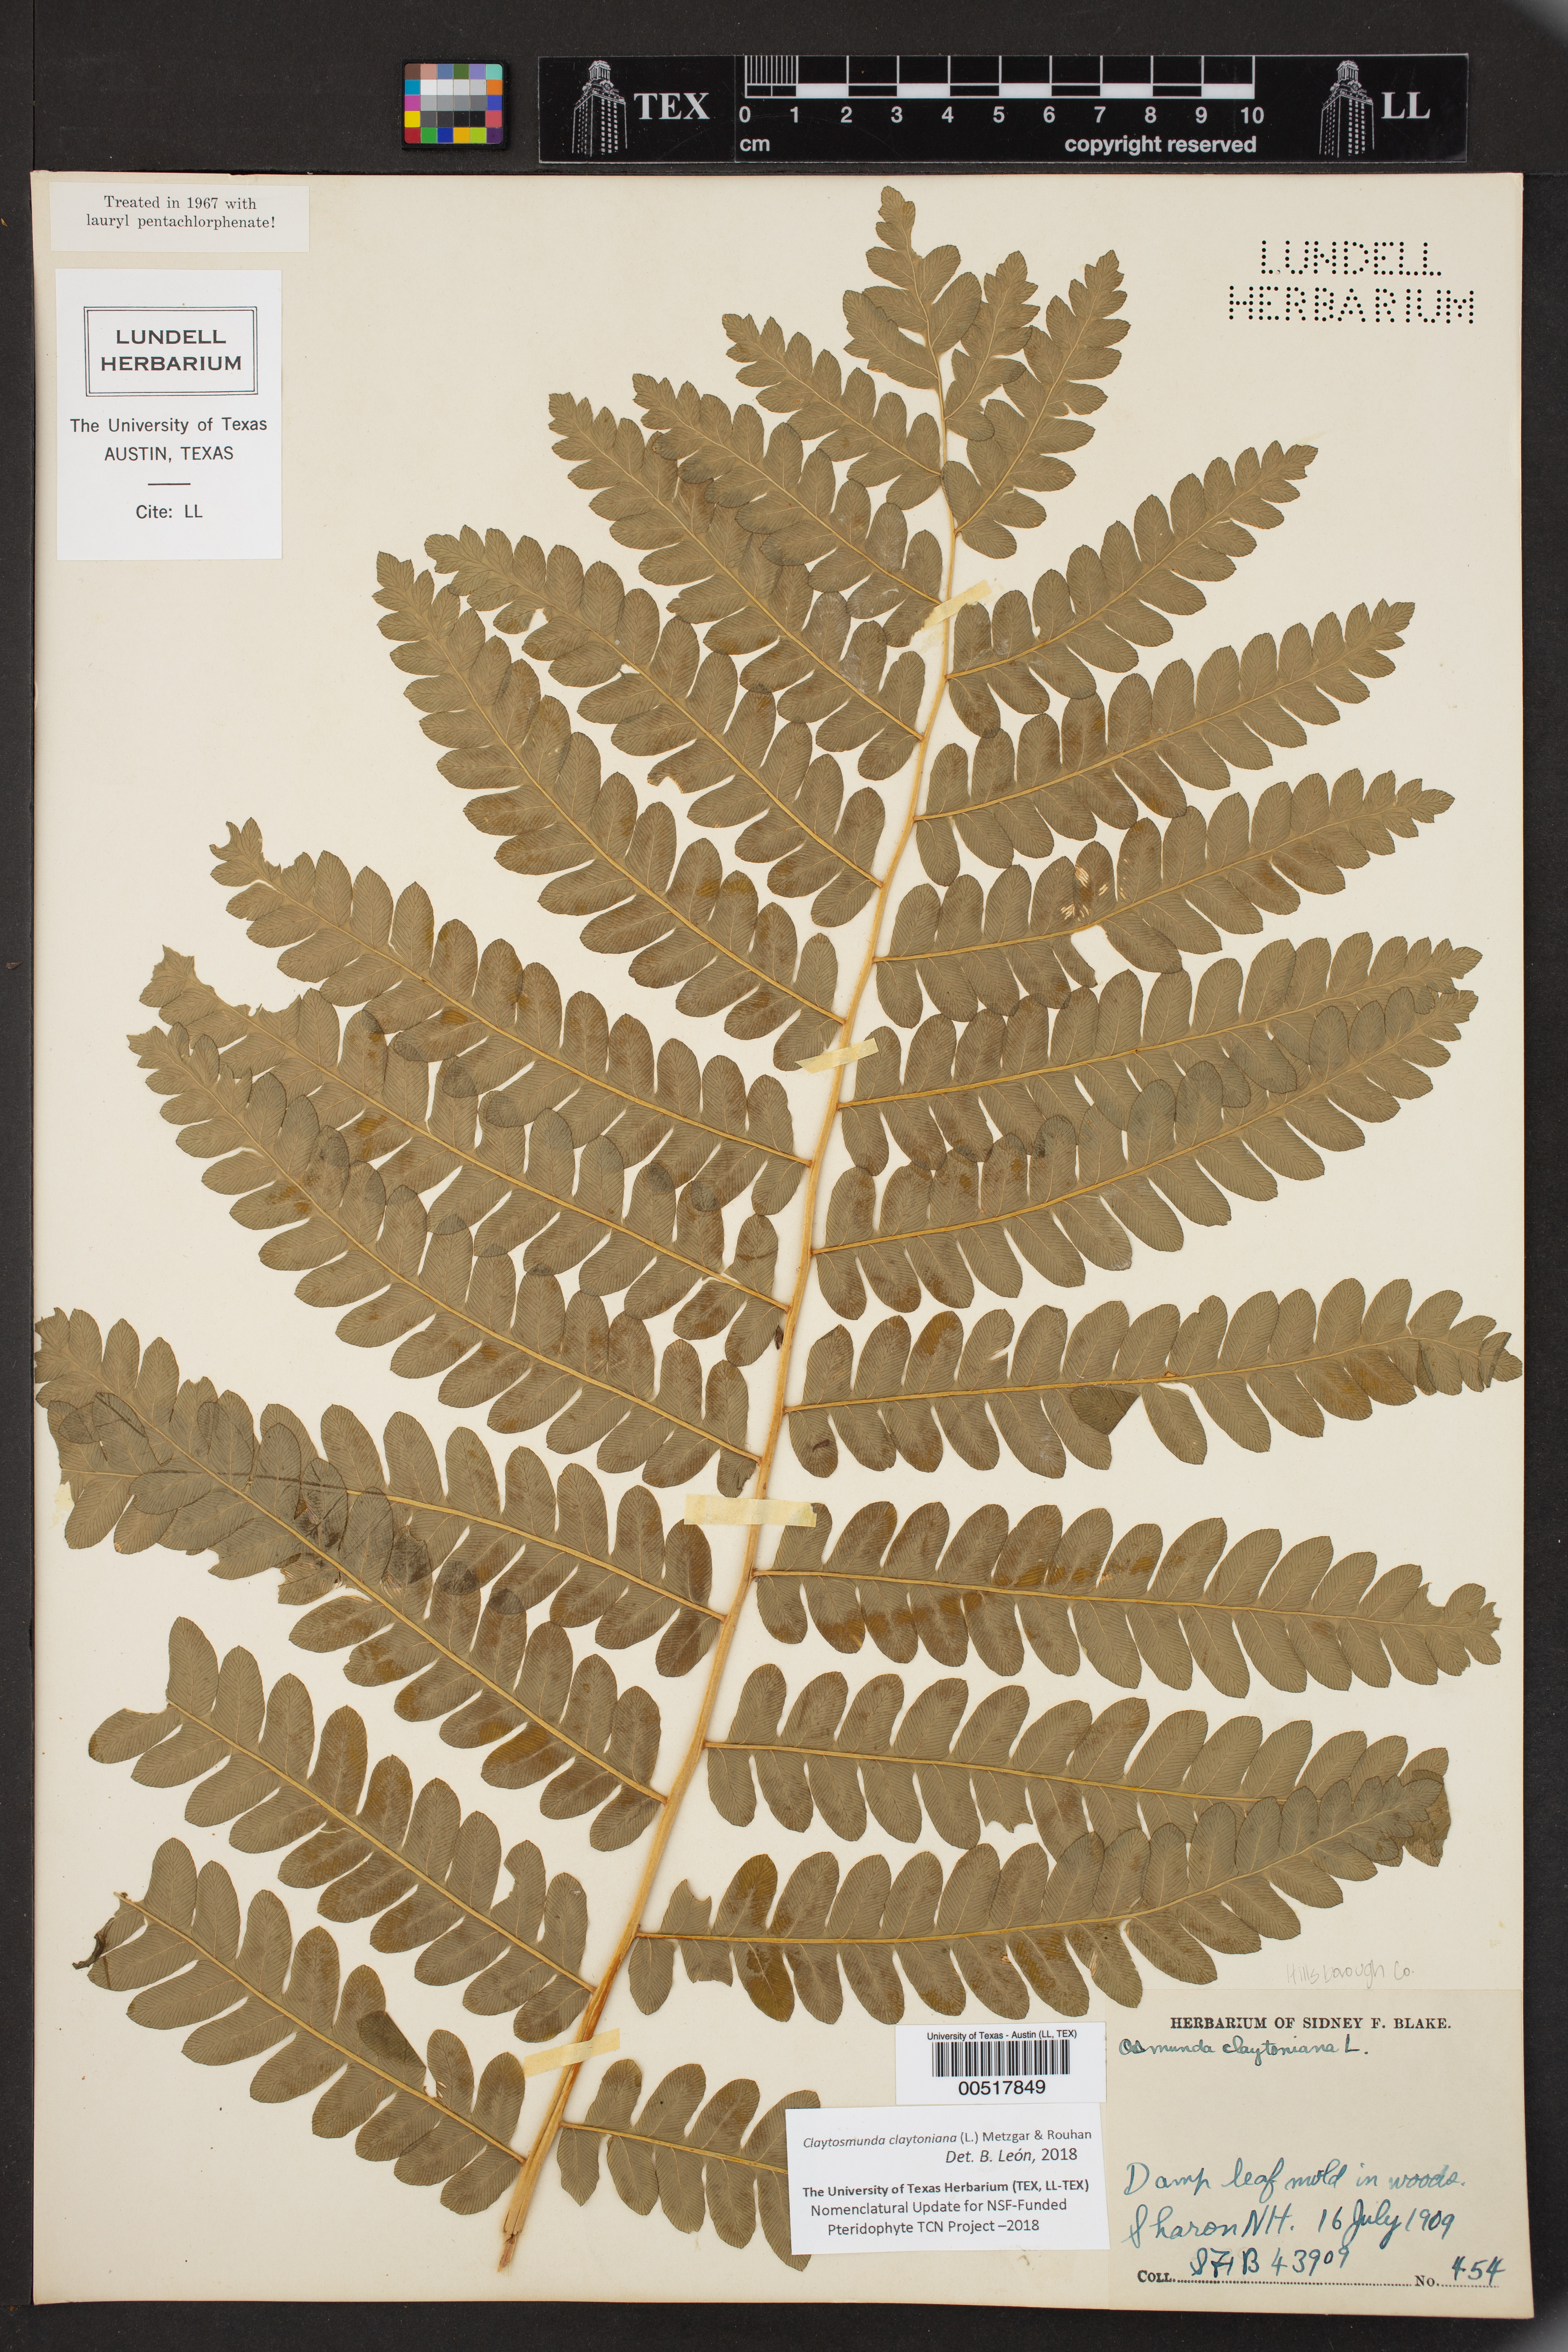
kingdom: Plantae
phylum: Tracheophyta
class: Polypodiopsida
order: Osmundales
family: Osmundaceae
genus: Claytosmunda
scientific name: Claytosmunda claytoniana
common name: Clayton's fern
